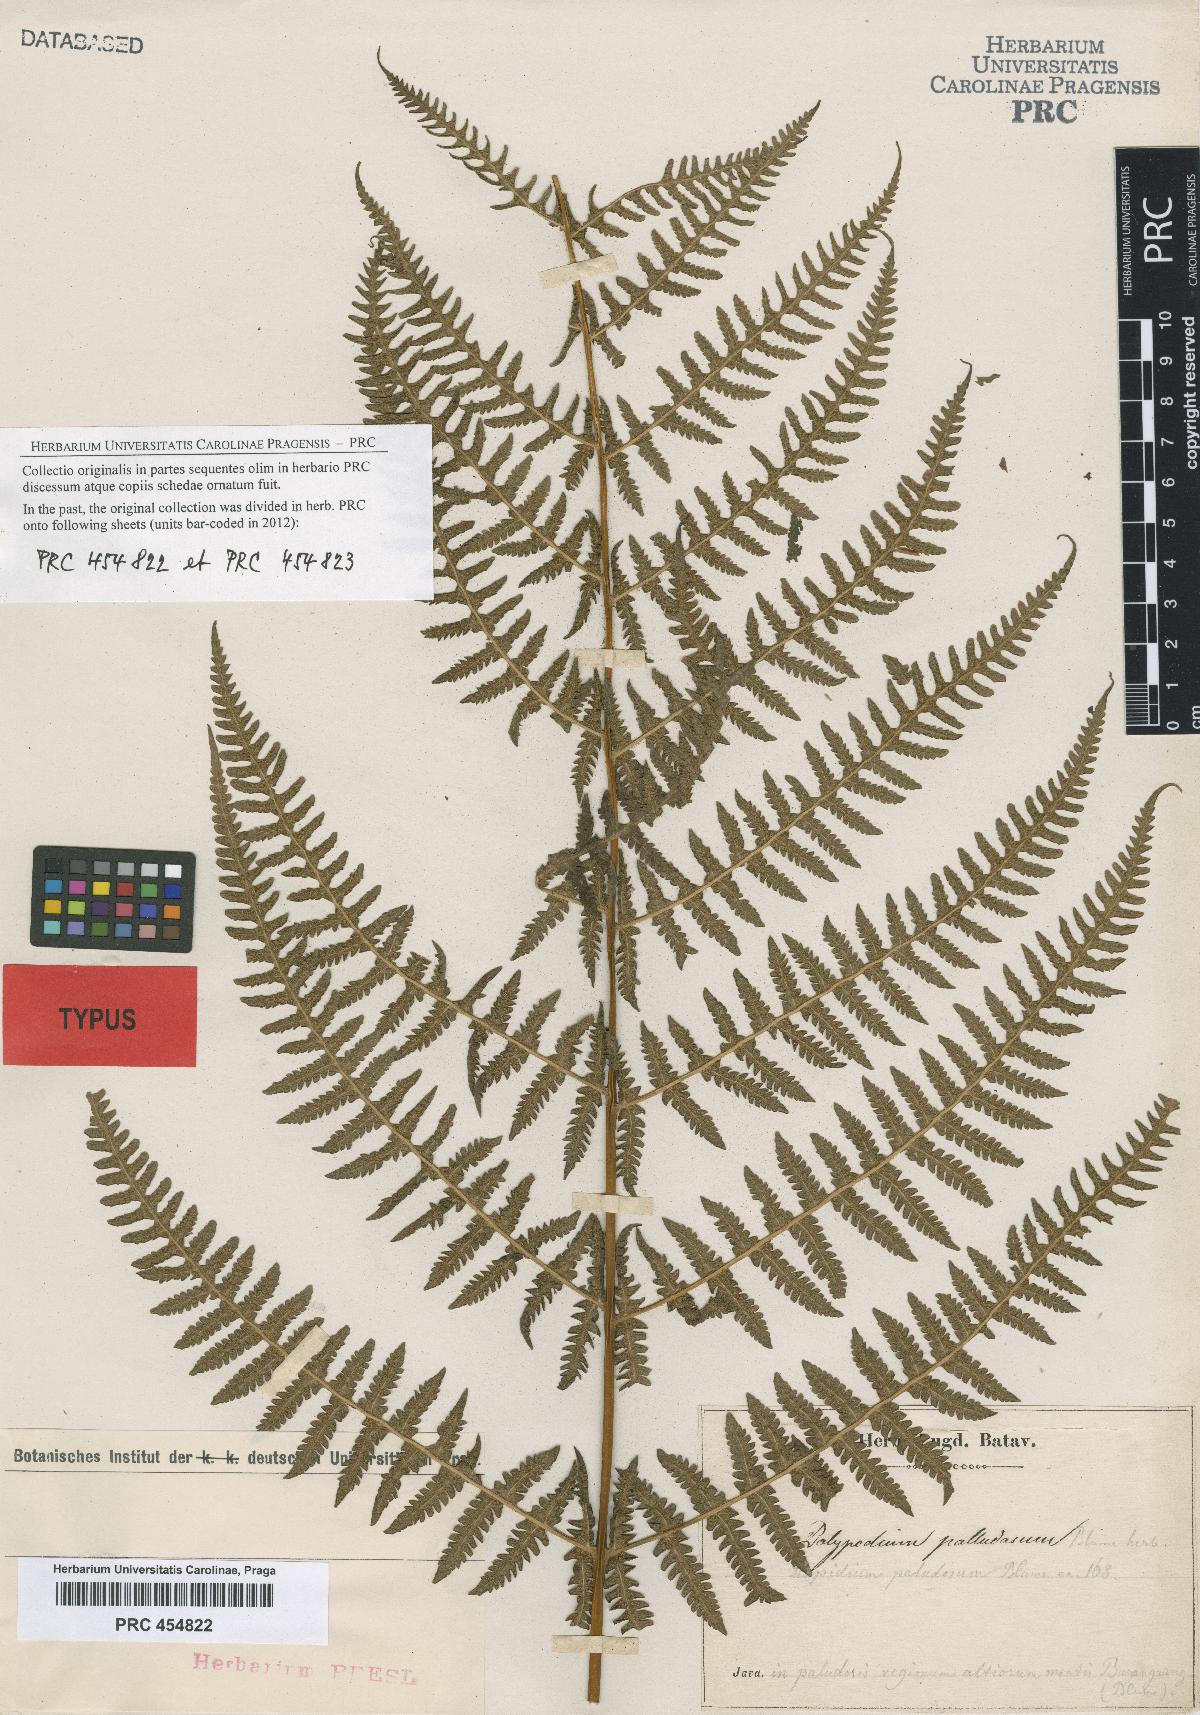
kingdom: Plantae
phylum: Tracheophyta
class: Polypodiopsida
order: Polypodiales
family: Thelypteridaceae
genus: Pseudophegopteris
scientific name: Pseudophegopteris paludosa
